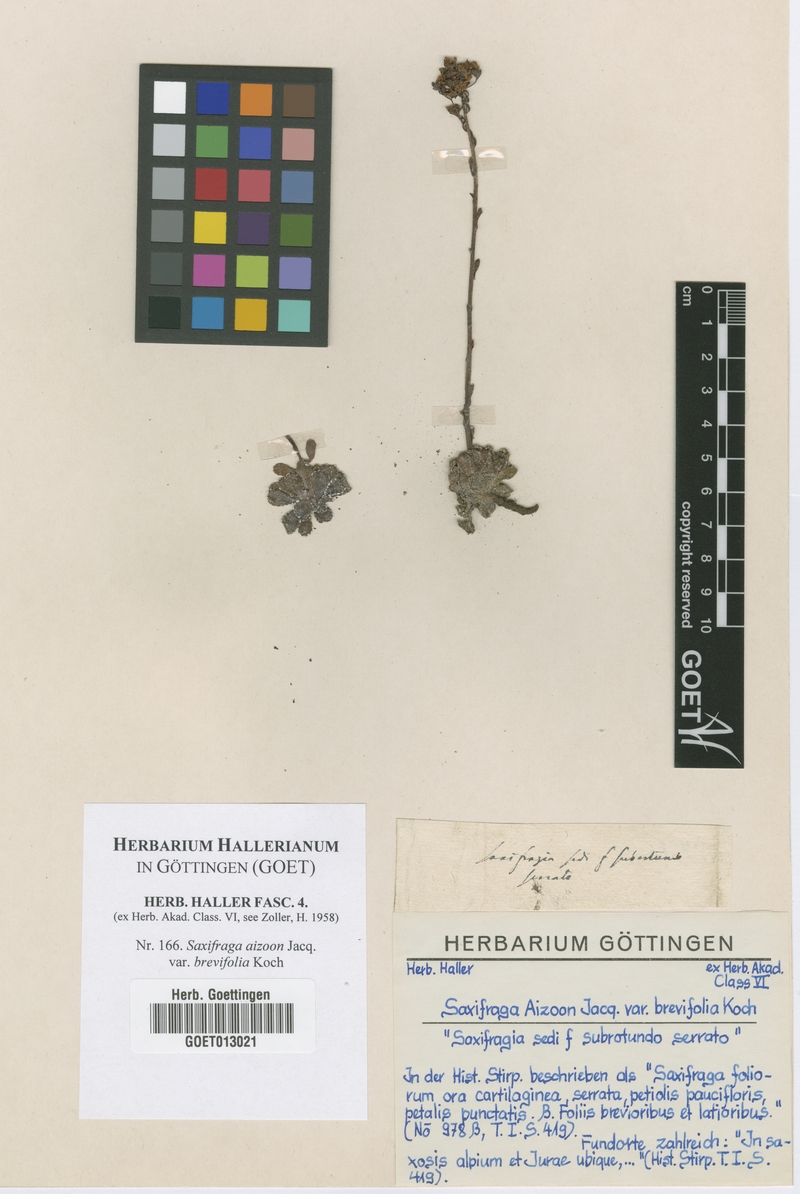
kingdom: Plantae
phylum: Tracheophyta
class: Magnoliopsida
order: Saxifragales
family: Saxifragaceae
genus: Saxifraga
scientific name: Saxifraga paniculata
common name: Livelong saxifrage
